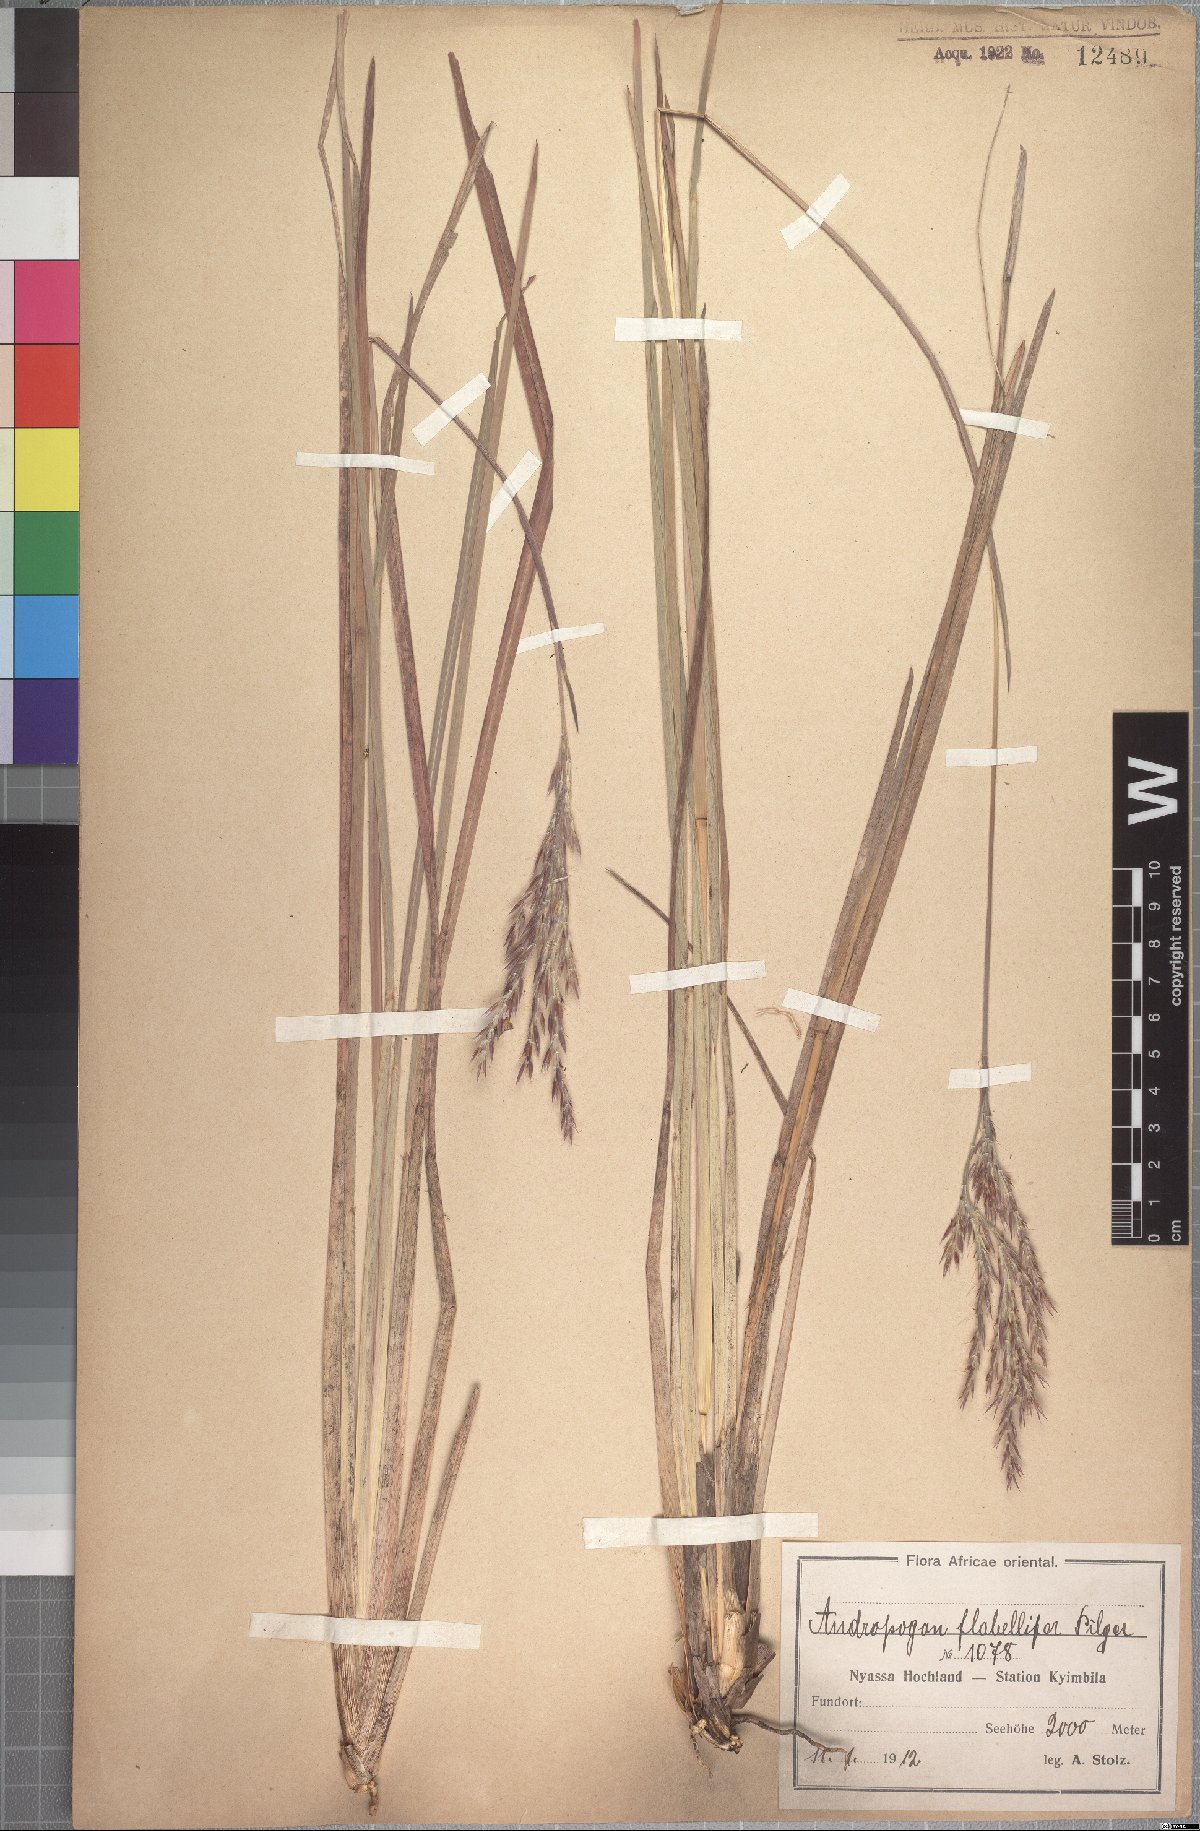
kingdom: Plantae
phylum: Tracheophyta
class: Liliopsida
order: Poales
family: Poaceae
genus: Andropogon
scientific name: Andropogon mannii
